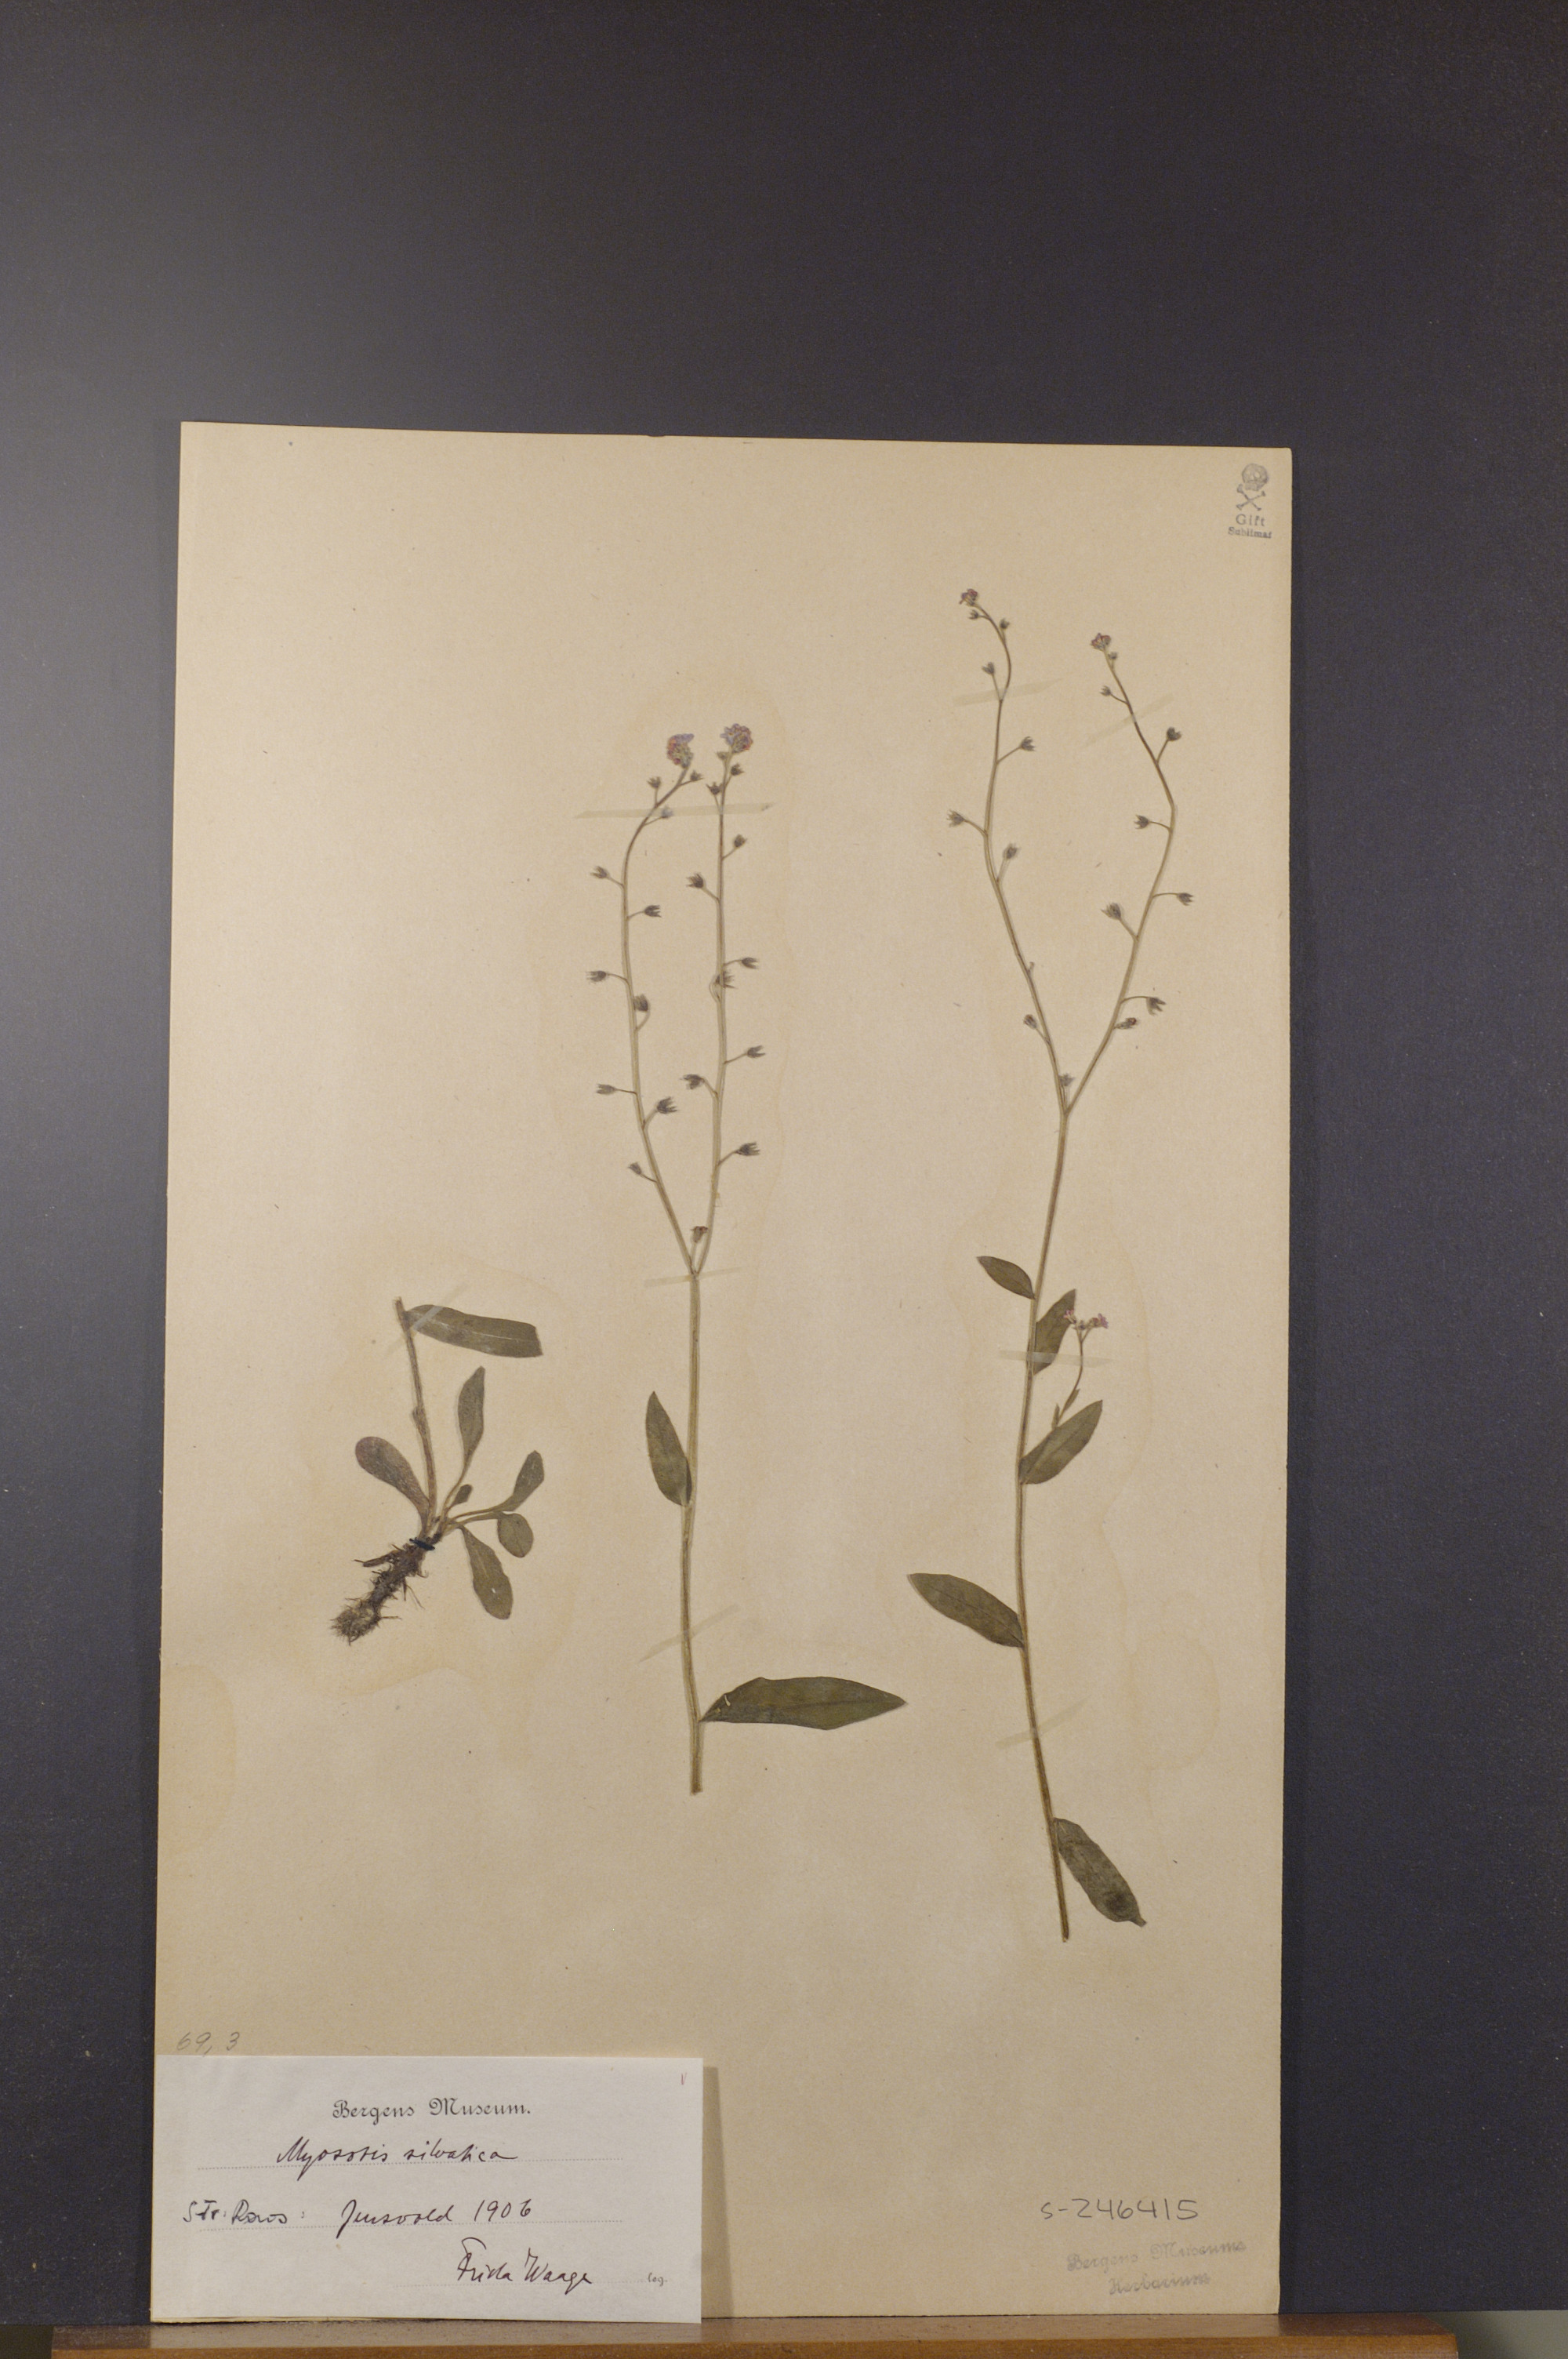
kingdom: Plantae
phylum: Tracheophyta
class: Magnoliopsida
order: Boraginales
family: Boraginaceae
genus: Myosotis
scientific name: Myosotis decumbens
